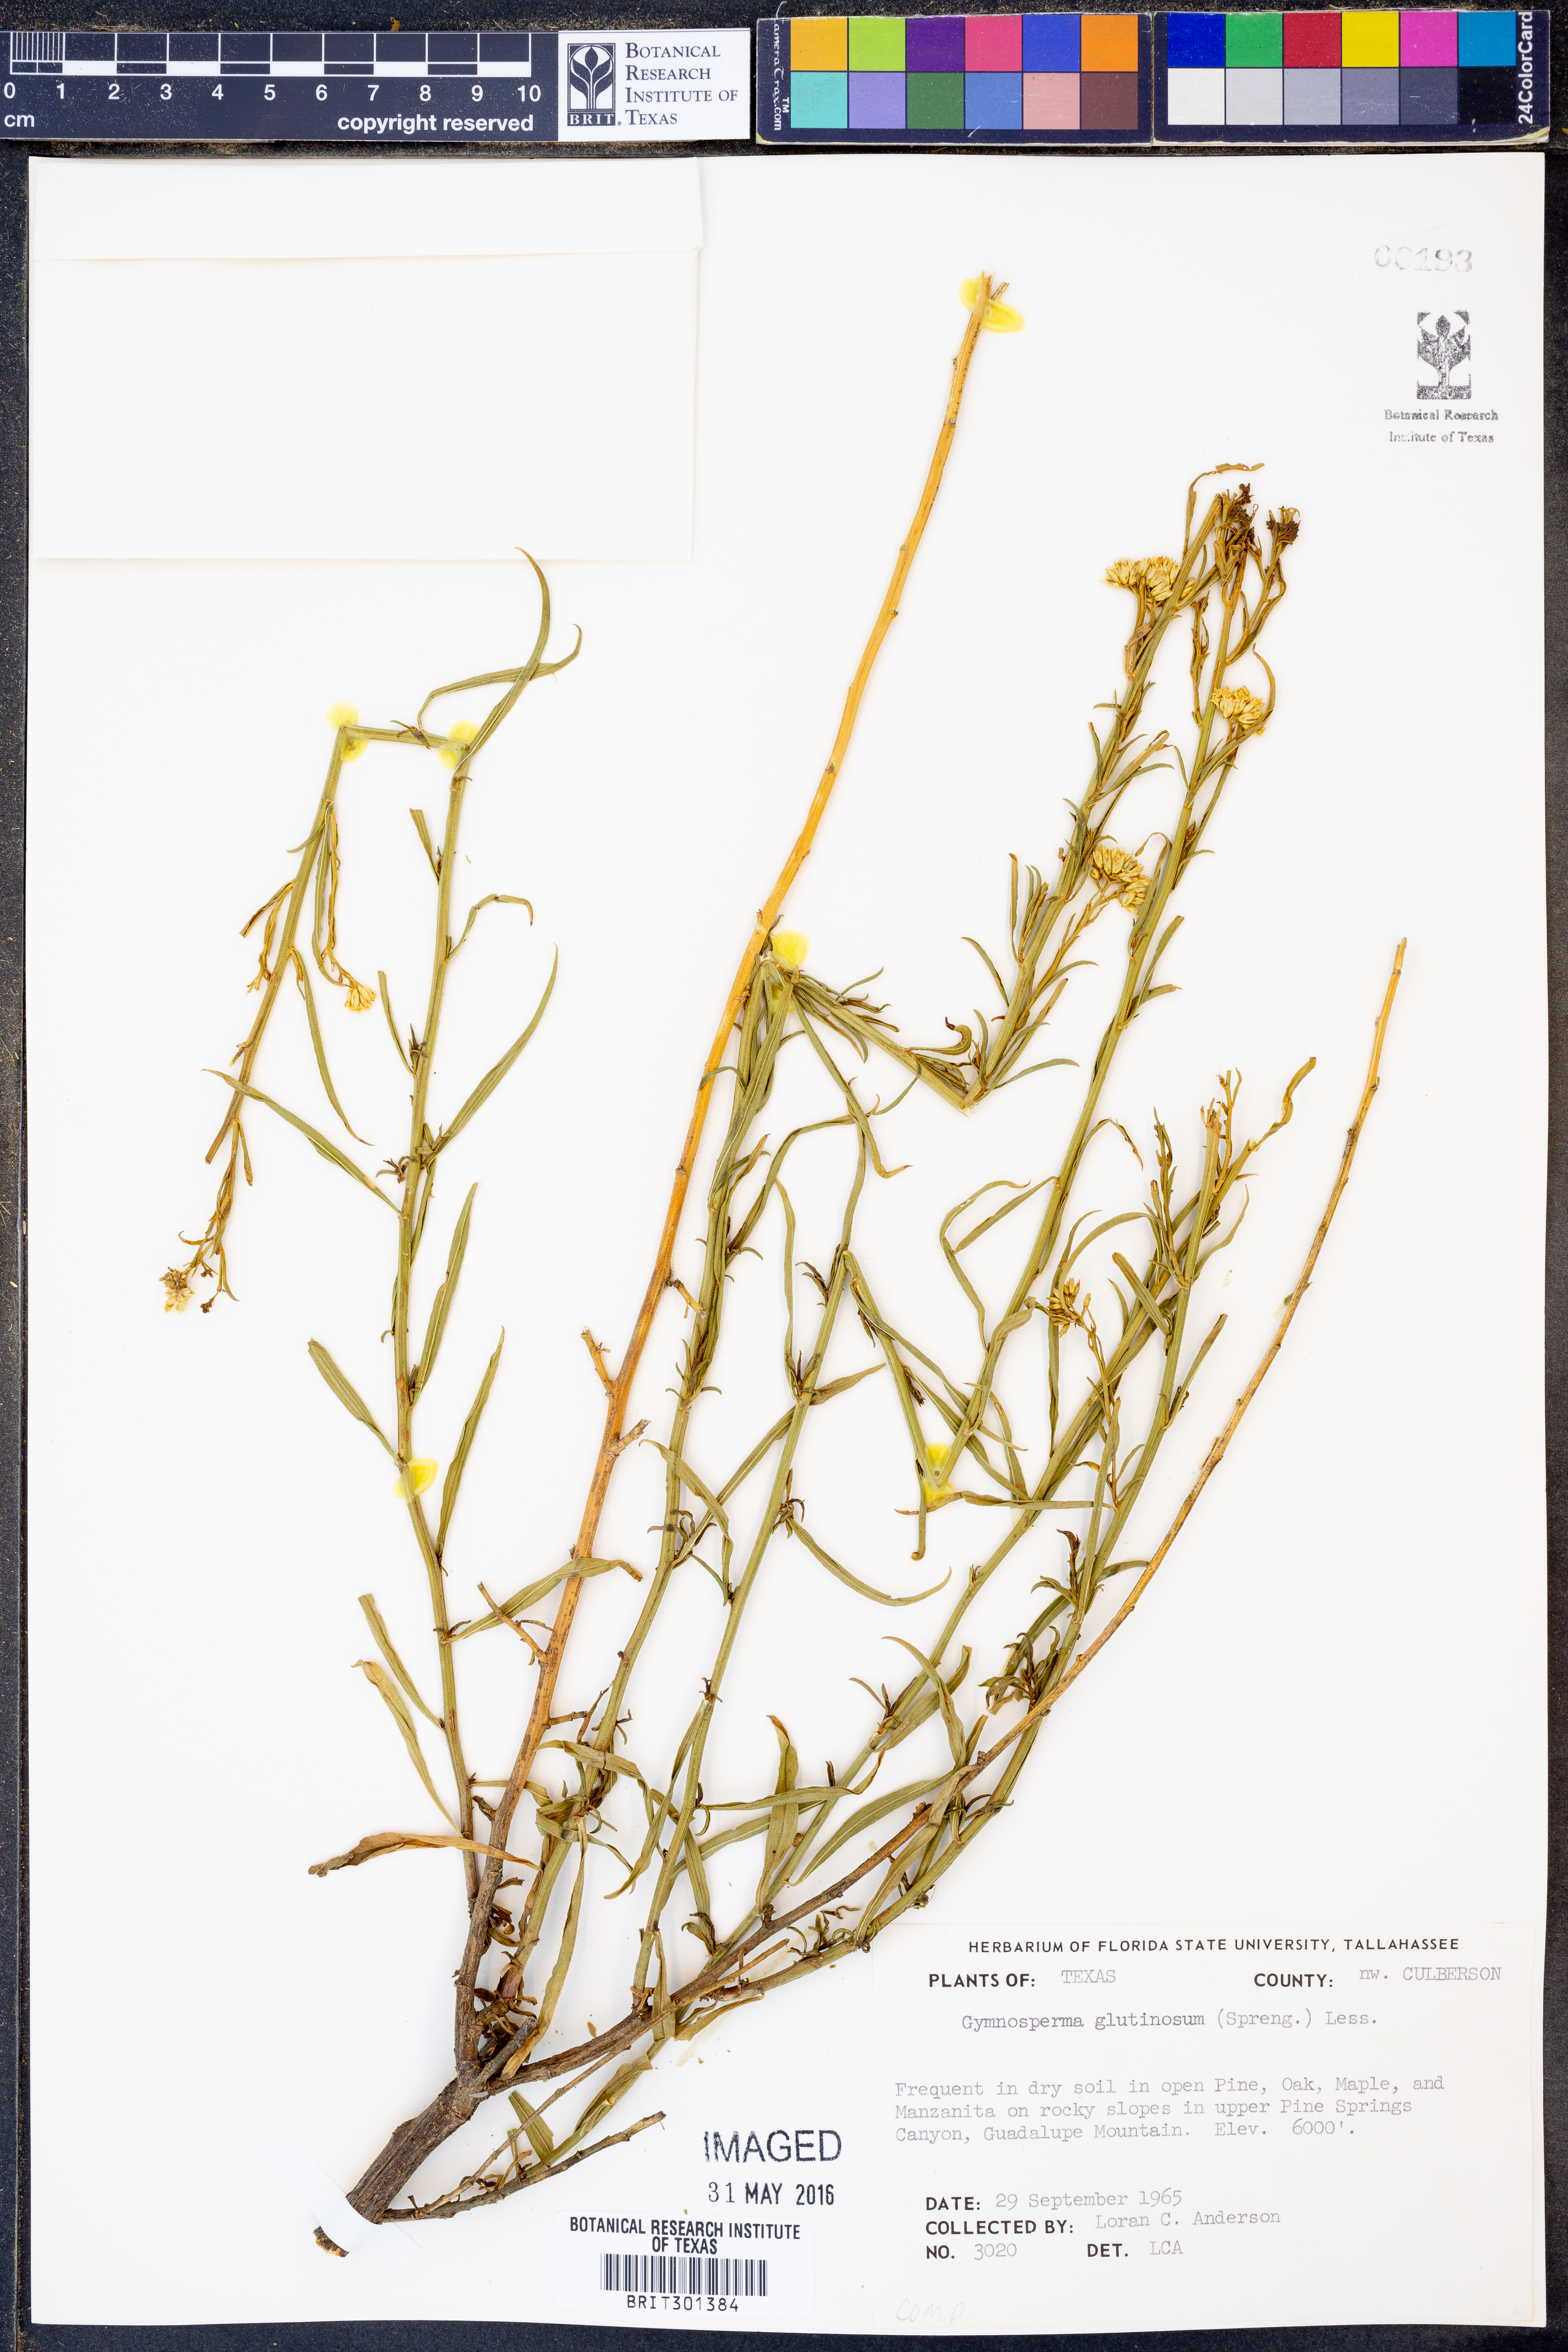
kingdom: Plantae
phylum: Tracheophyta
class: Magnoliopsida
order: Asterales
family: Asteraceae
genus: Gymnosperma
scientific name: Gymnosperma glutinosum
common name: Gumhead
